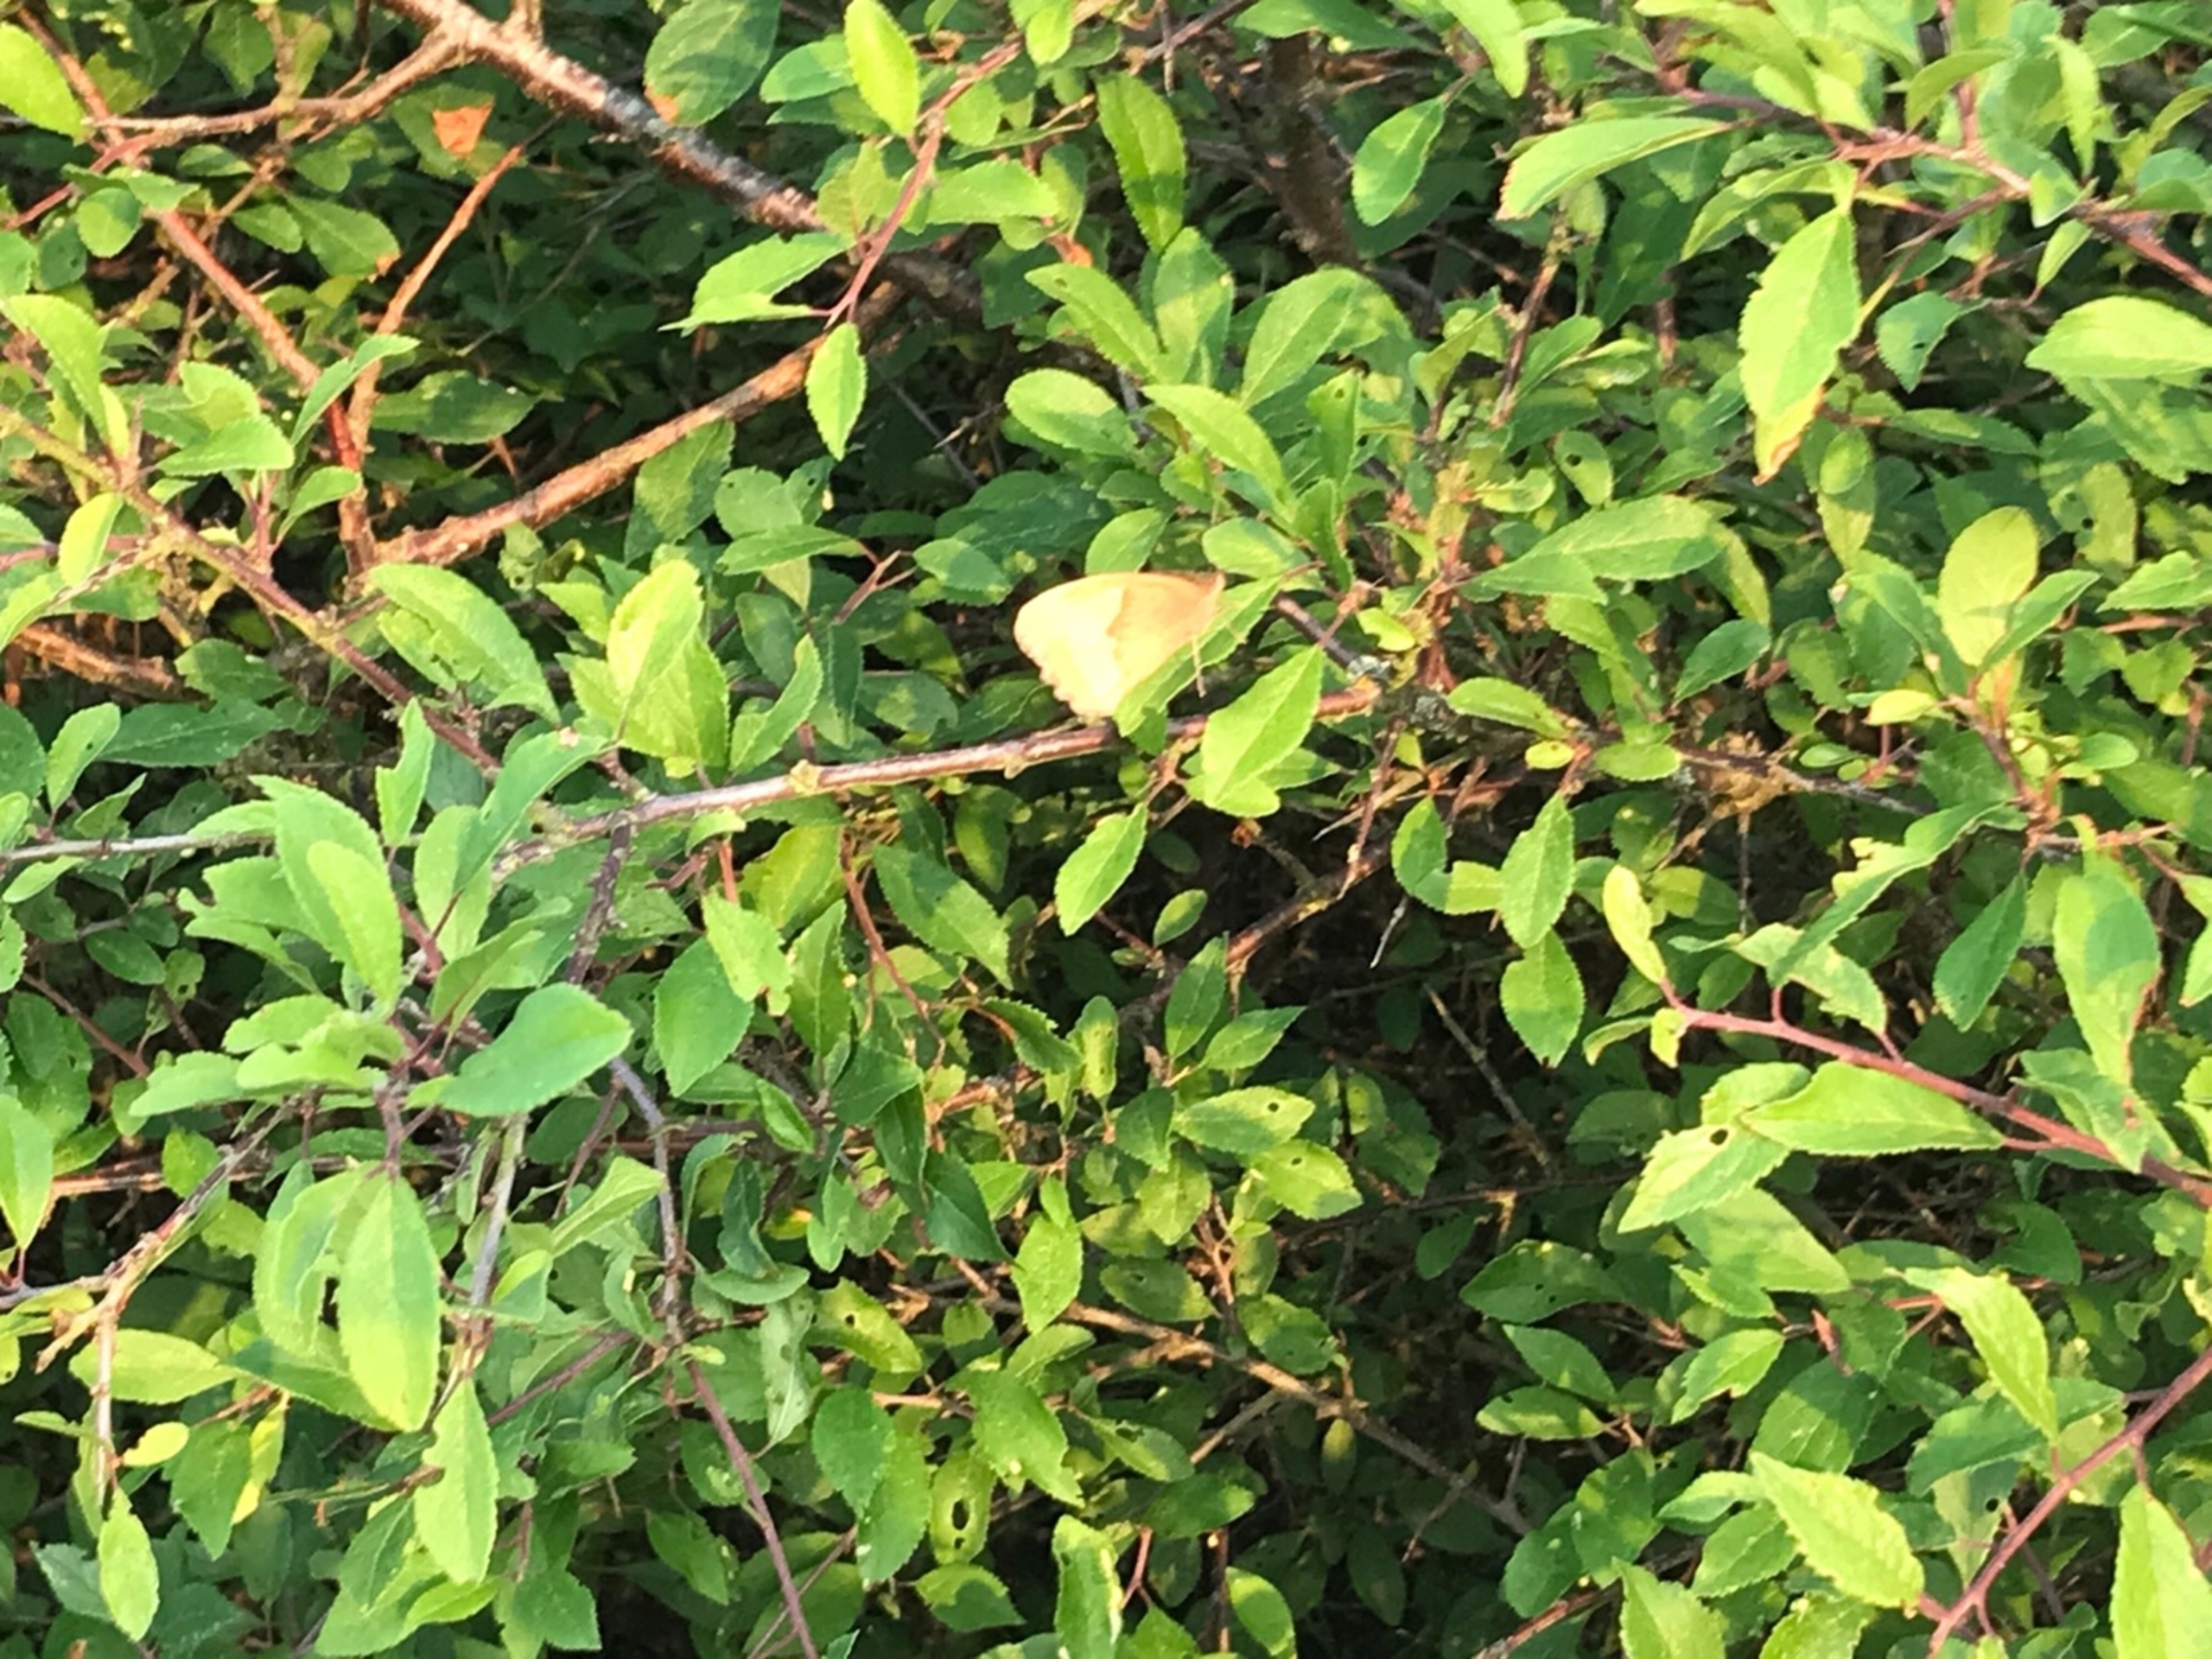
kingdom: Animalia
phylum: Arthropoda
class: Insecta
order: Lepidoptera
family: Nymphalidae
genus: Maniola
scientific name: Maniola jurtina
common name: Græsrandøje
